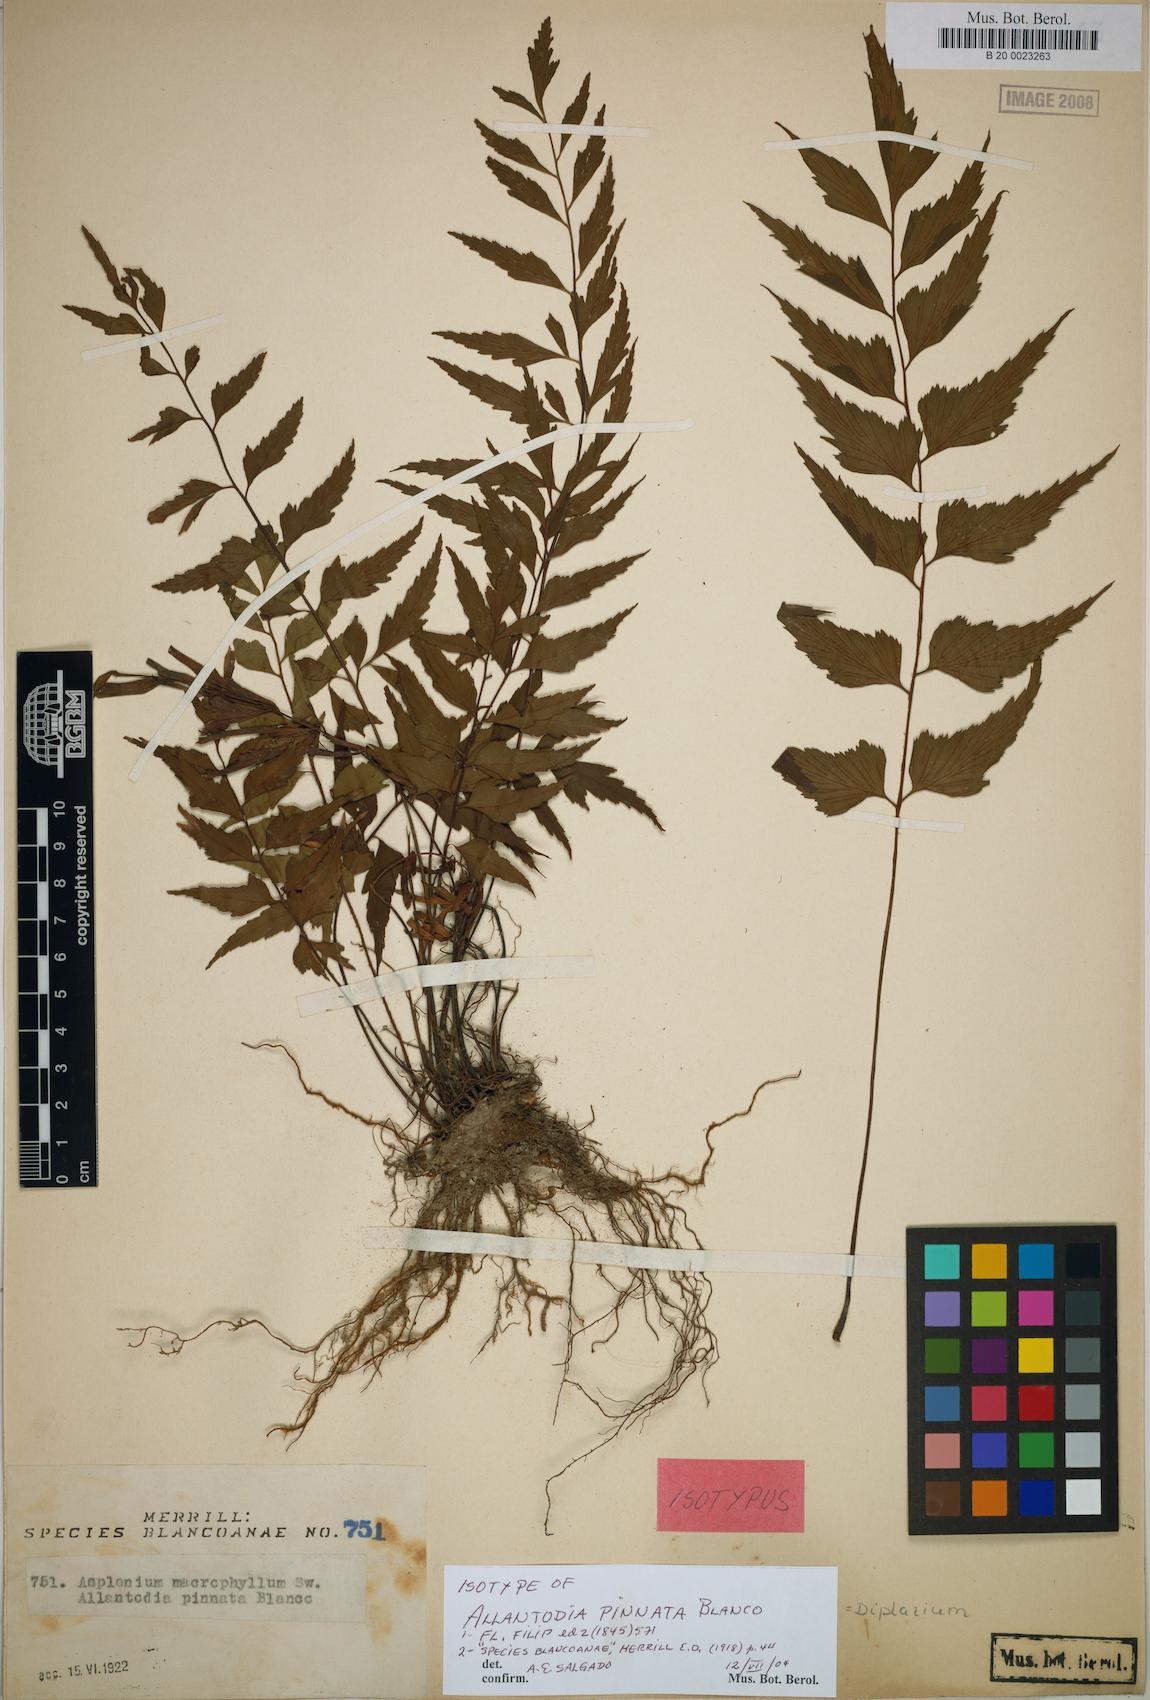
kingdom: Plantae
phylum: Tracheophyta
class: Polypodiopsida
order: Polypodiales
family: Athyriaceae
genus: Diplazium
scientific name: Diplazium
